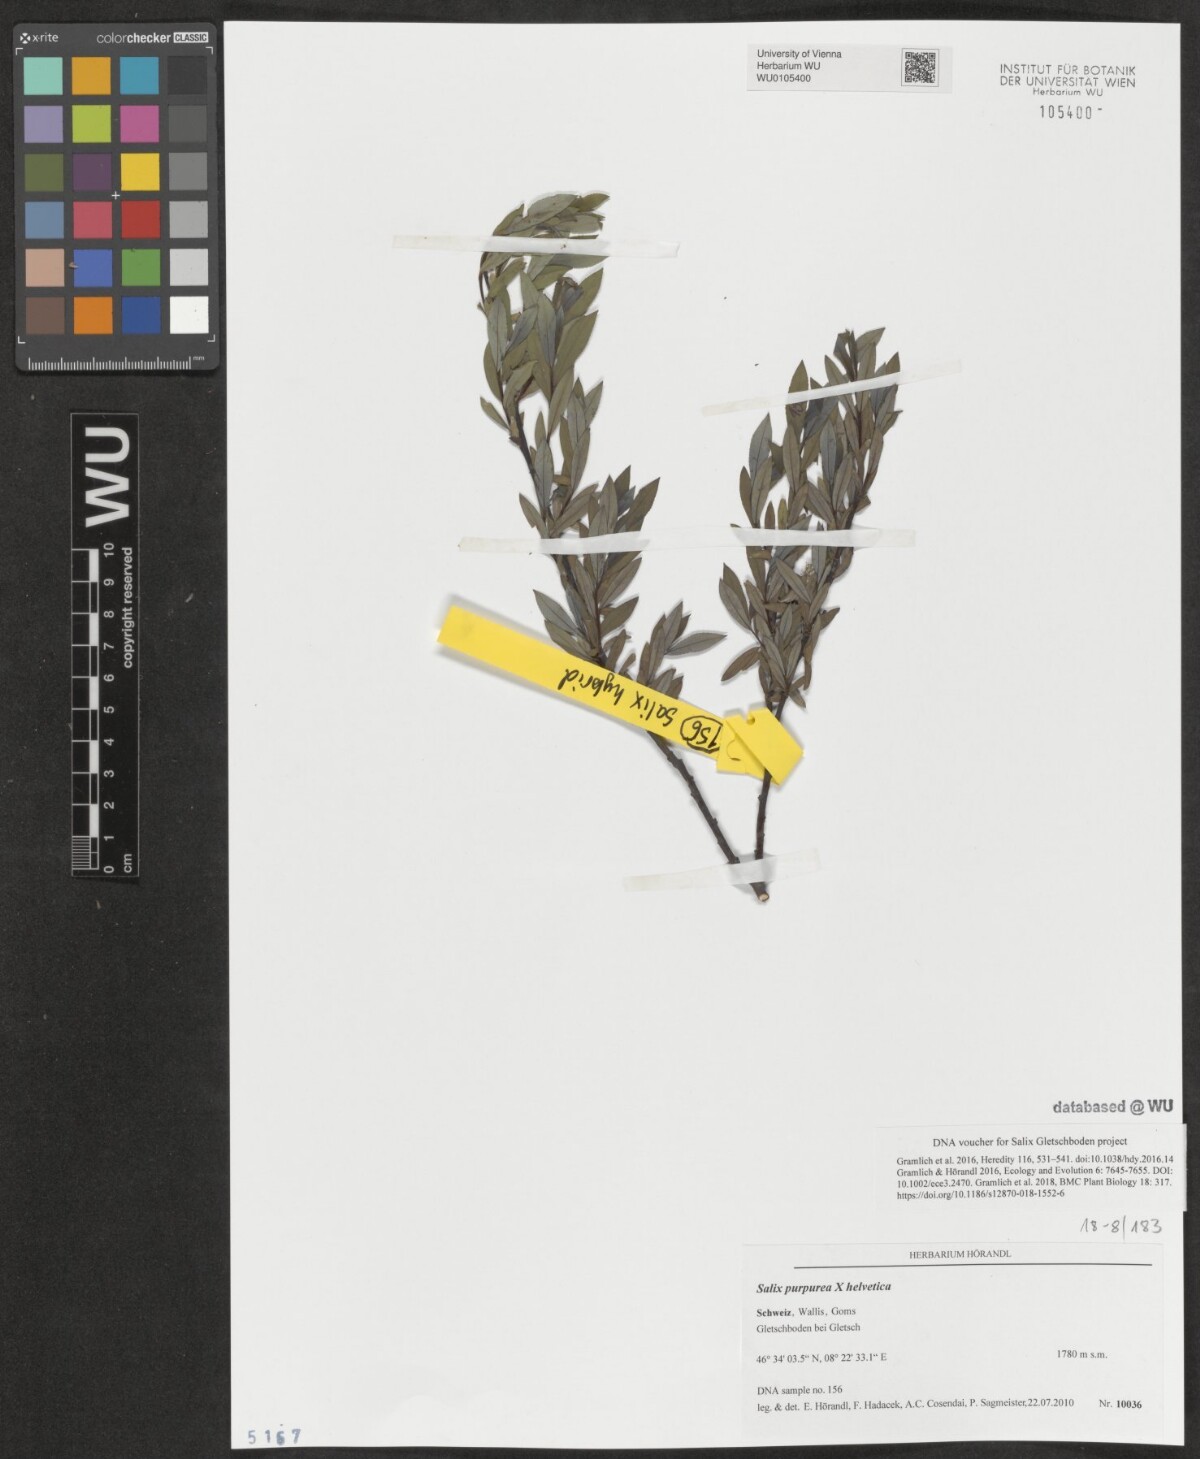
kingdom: Plantae
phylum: Tracheophyta
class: Magnoliopsida
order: Malpighiales
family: Salicaceae
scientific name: Salicaceae
